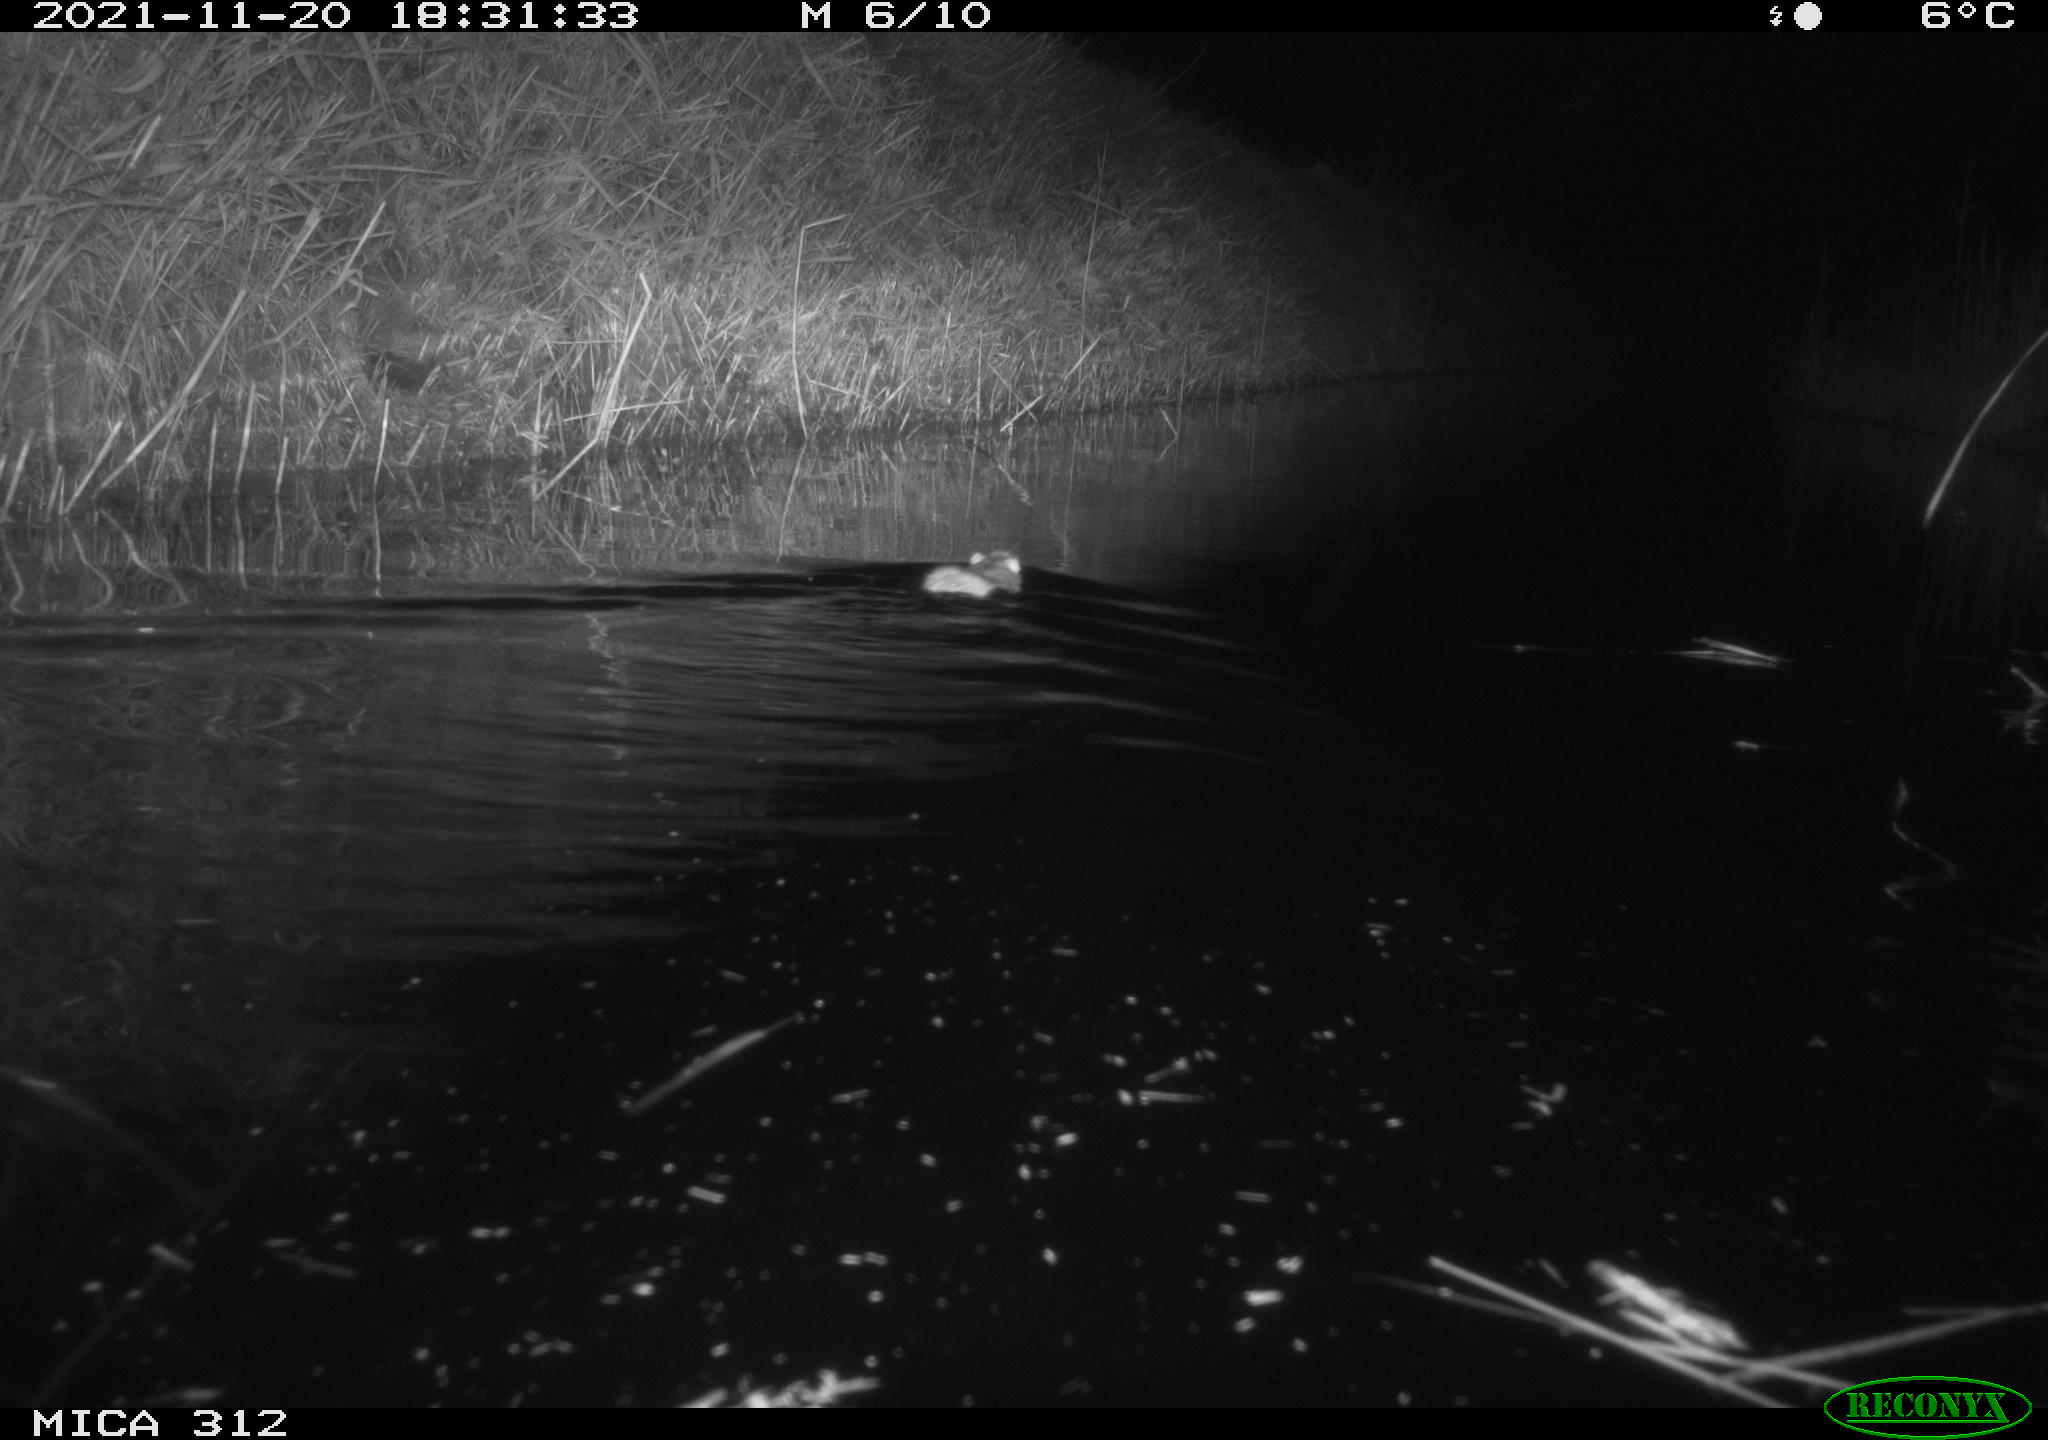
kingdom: Animalia
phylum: Chordata
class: Mammalia
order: Rodentia
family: Muridae
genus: Rattus
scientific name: Rattus norvegicus
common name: Brown rat
